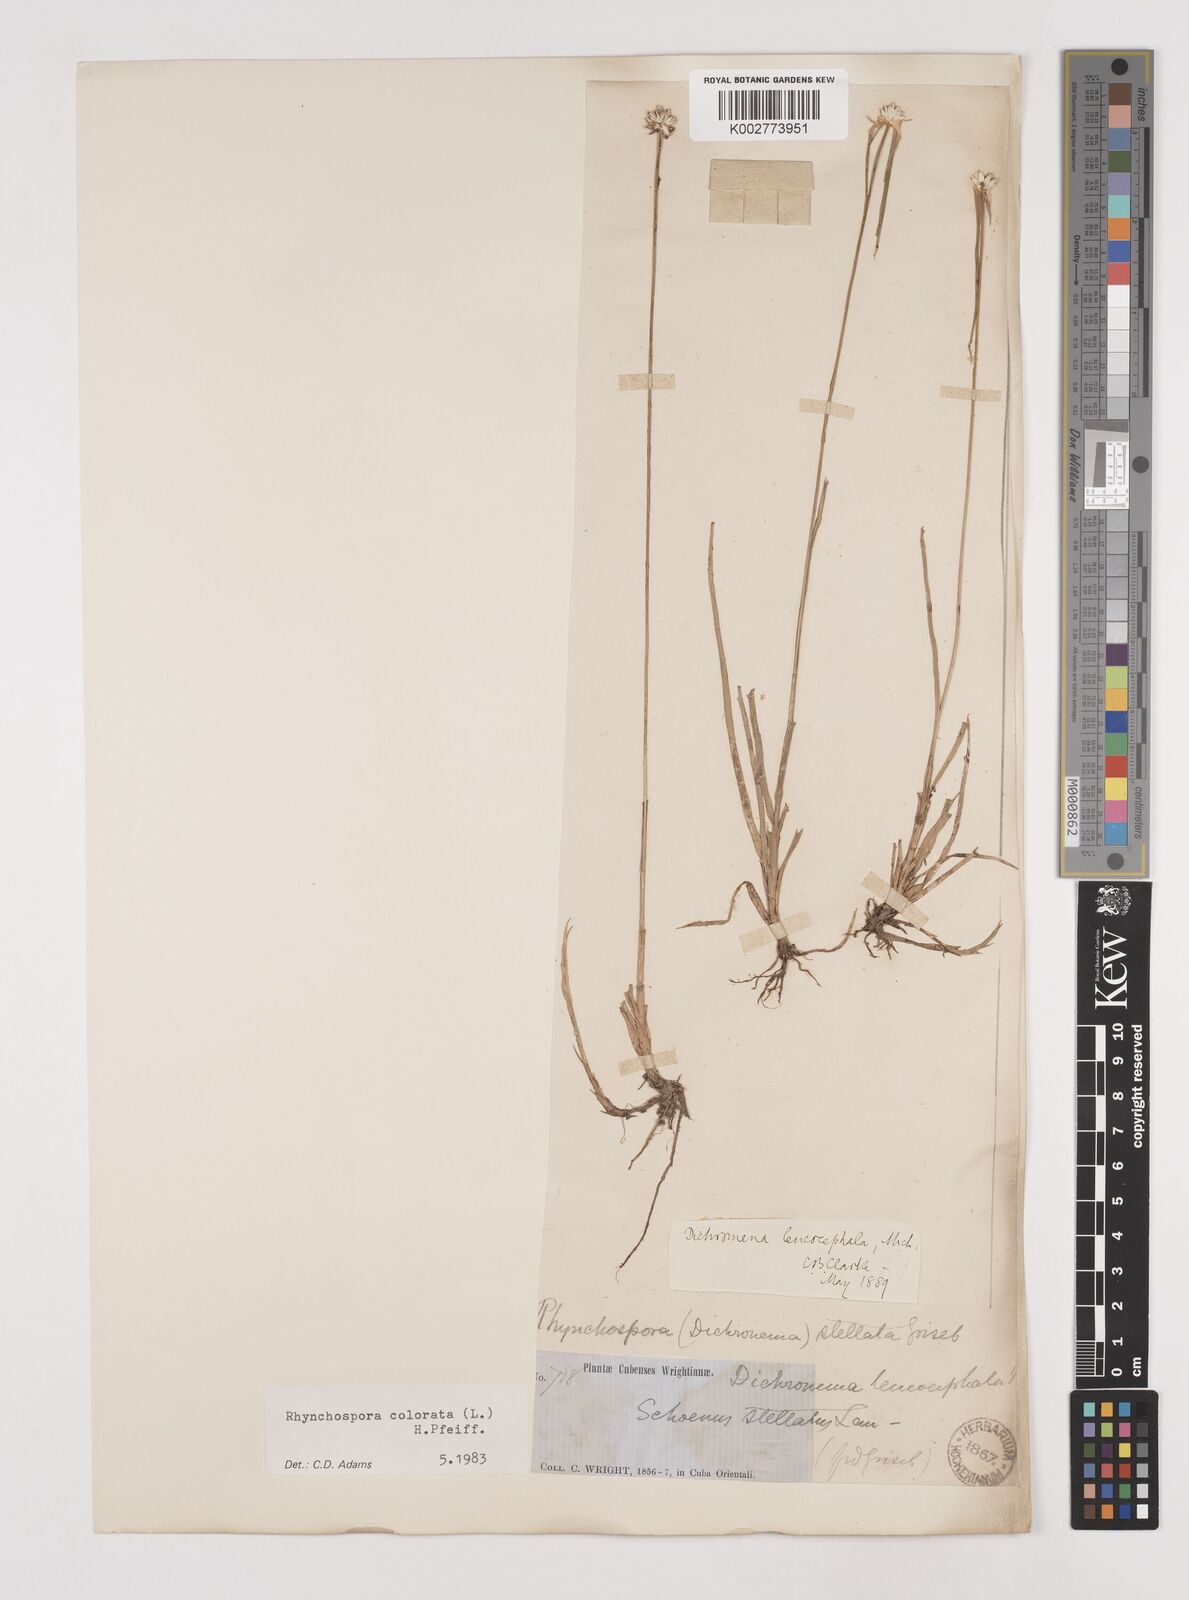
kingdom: Plantae
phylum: Tracheophyta
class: Liliopsida
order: Poales
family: Cyperaceae
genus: Rhynchospora
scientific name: Rhynchospora colorata
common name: Star sedge
